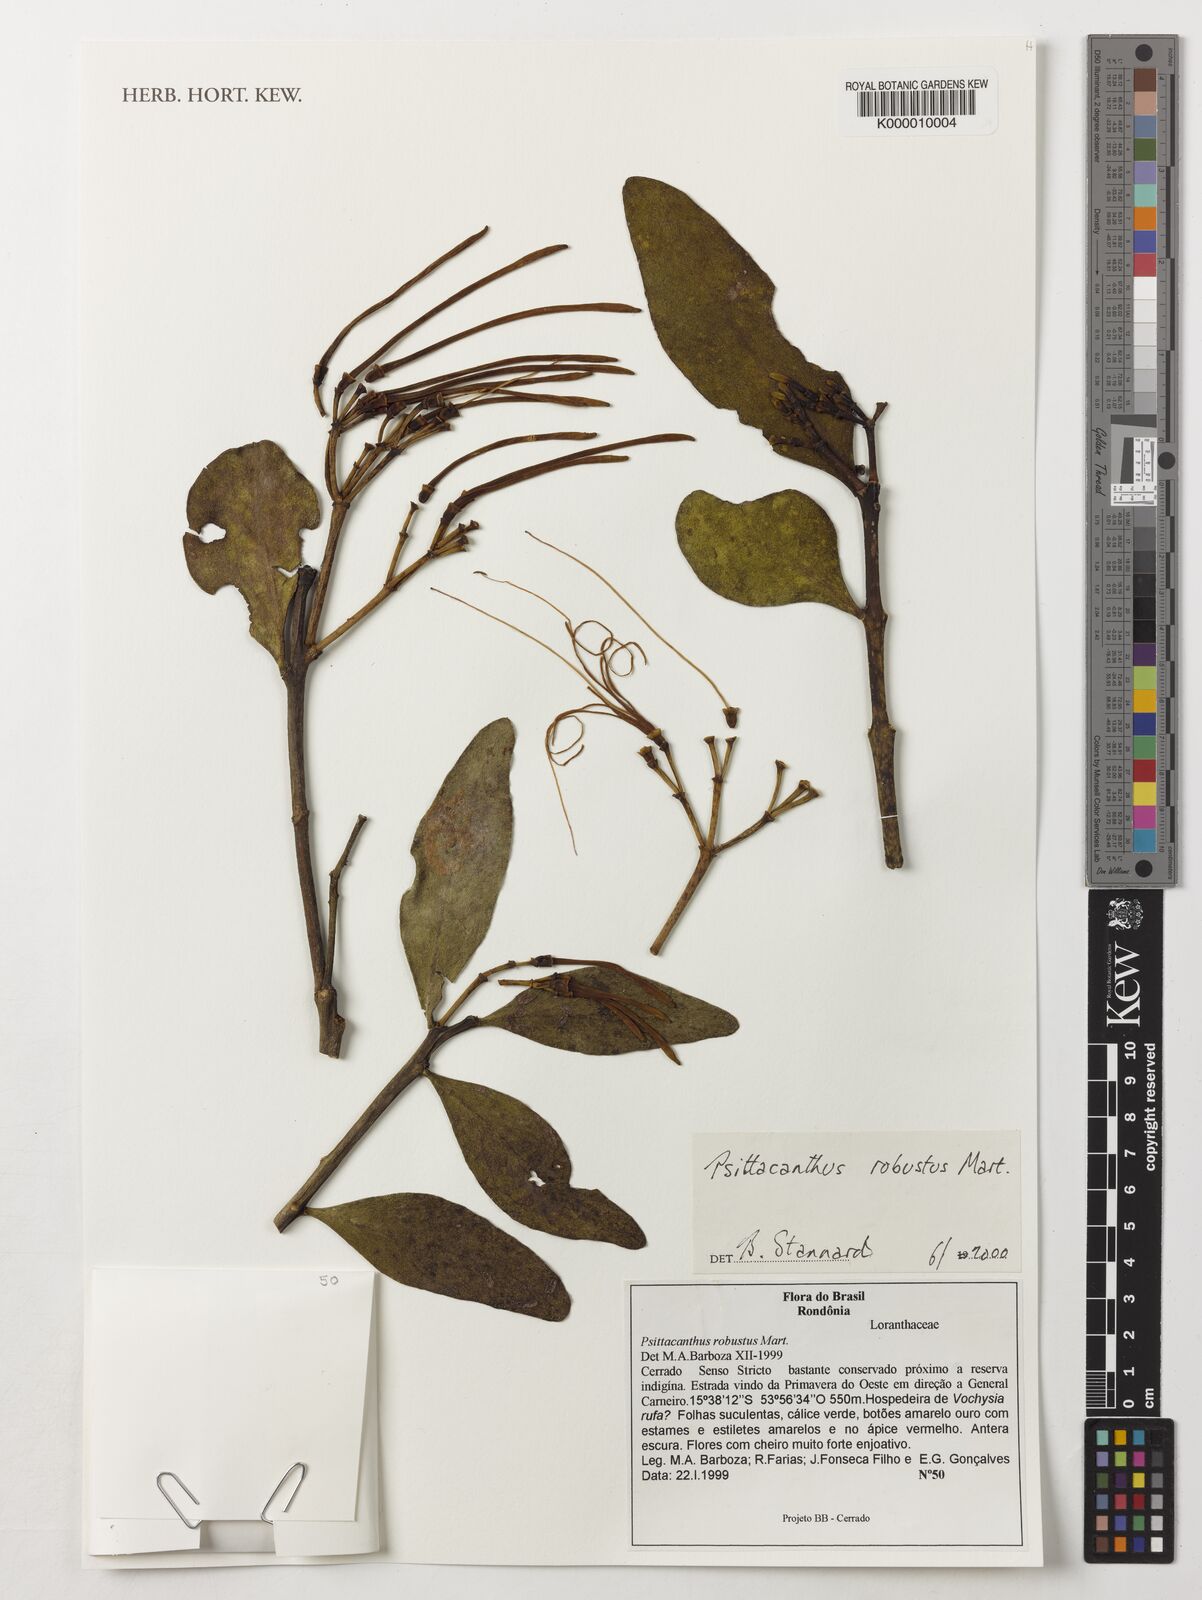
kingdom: Plantae
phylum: Tracheophyta
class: Magnoliopsida
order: Santalales
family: Loranthaceae
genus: Psittacanthus
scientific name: Psittacanthus robustus
